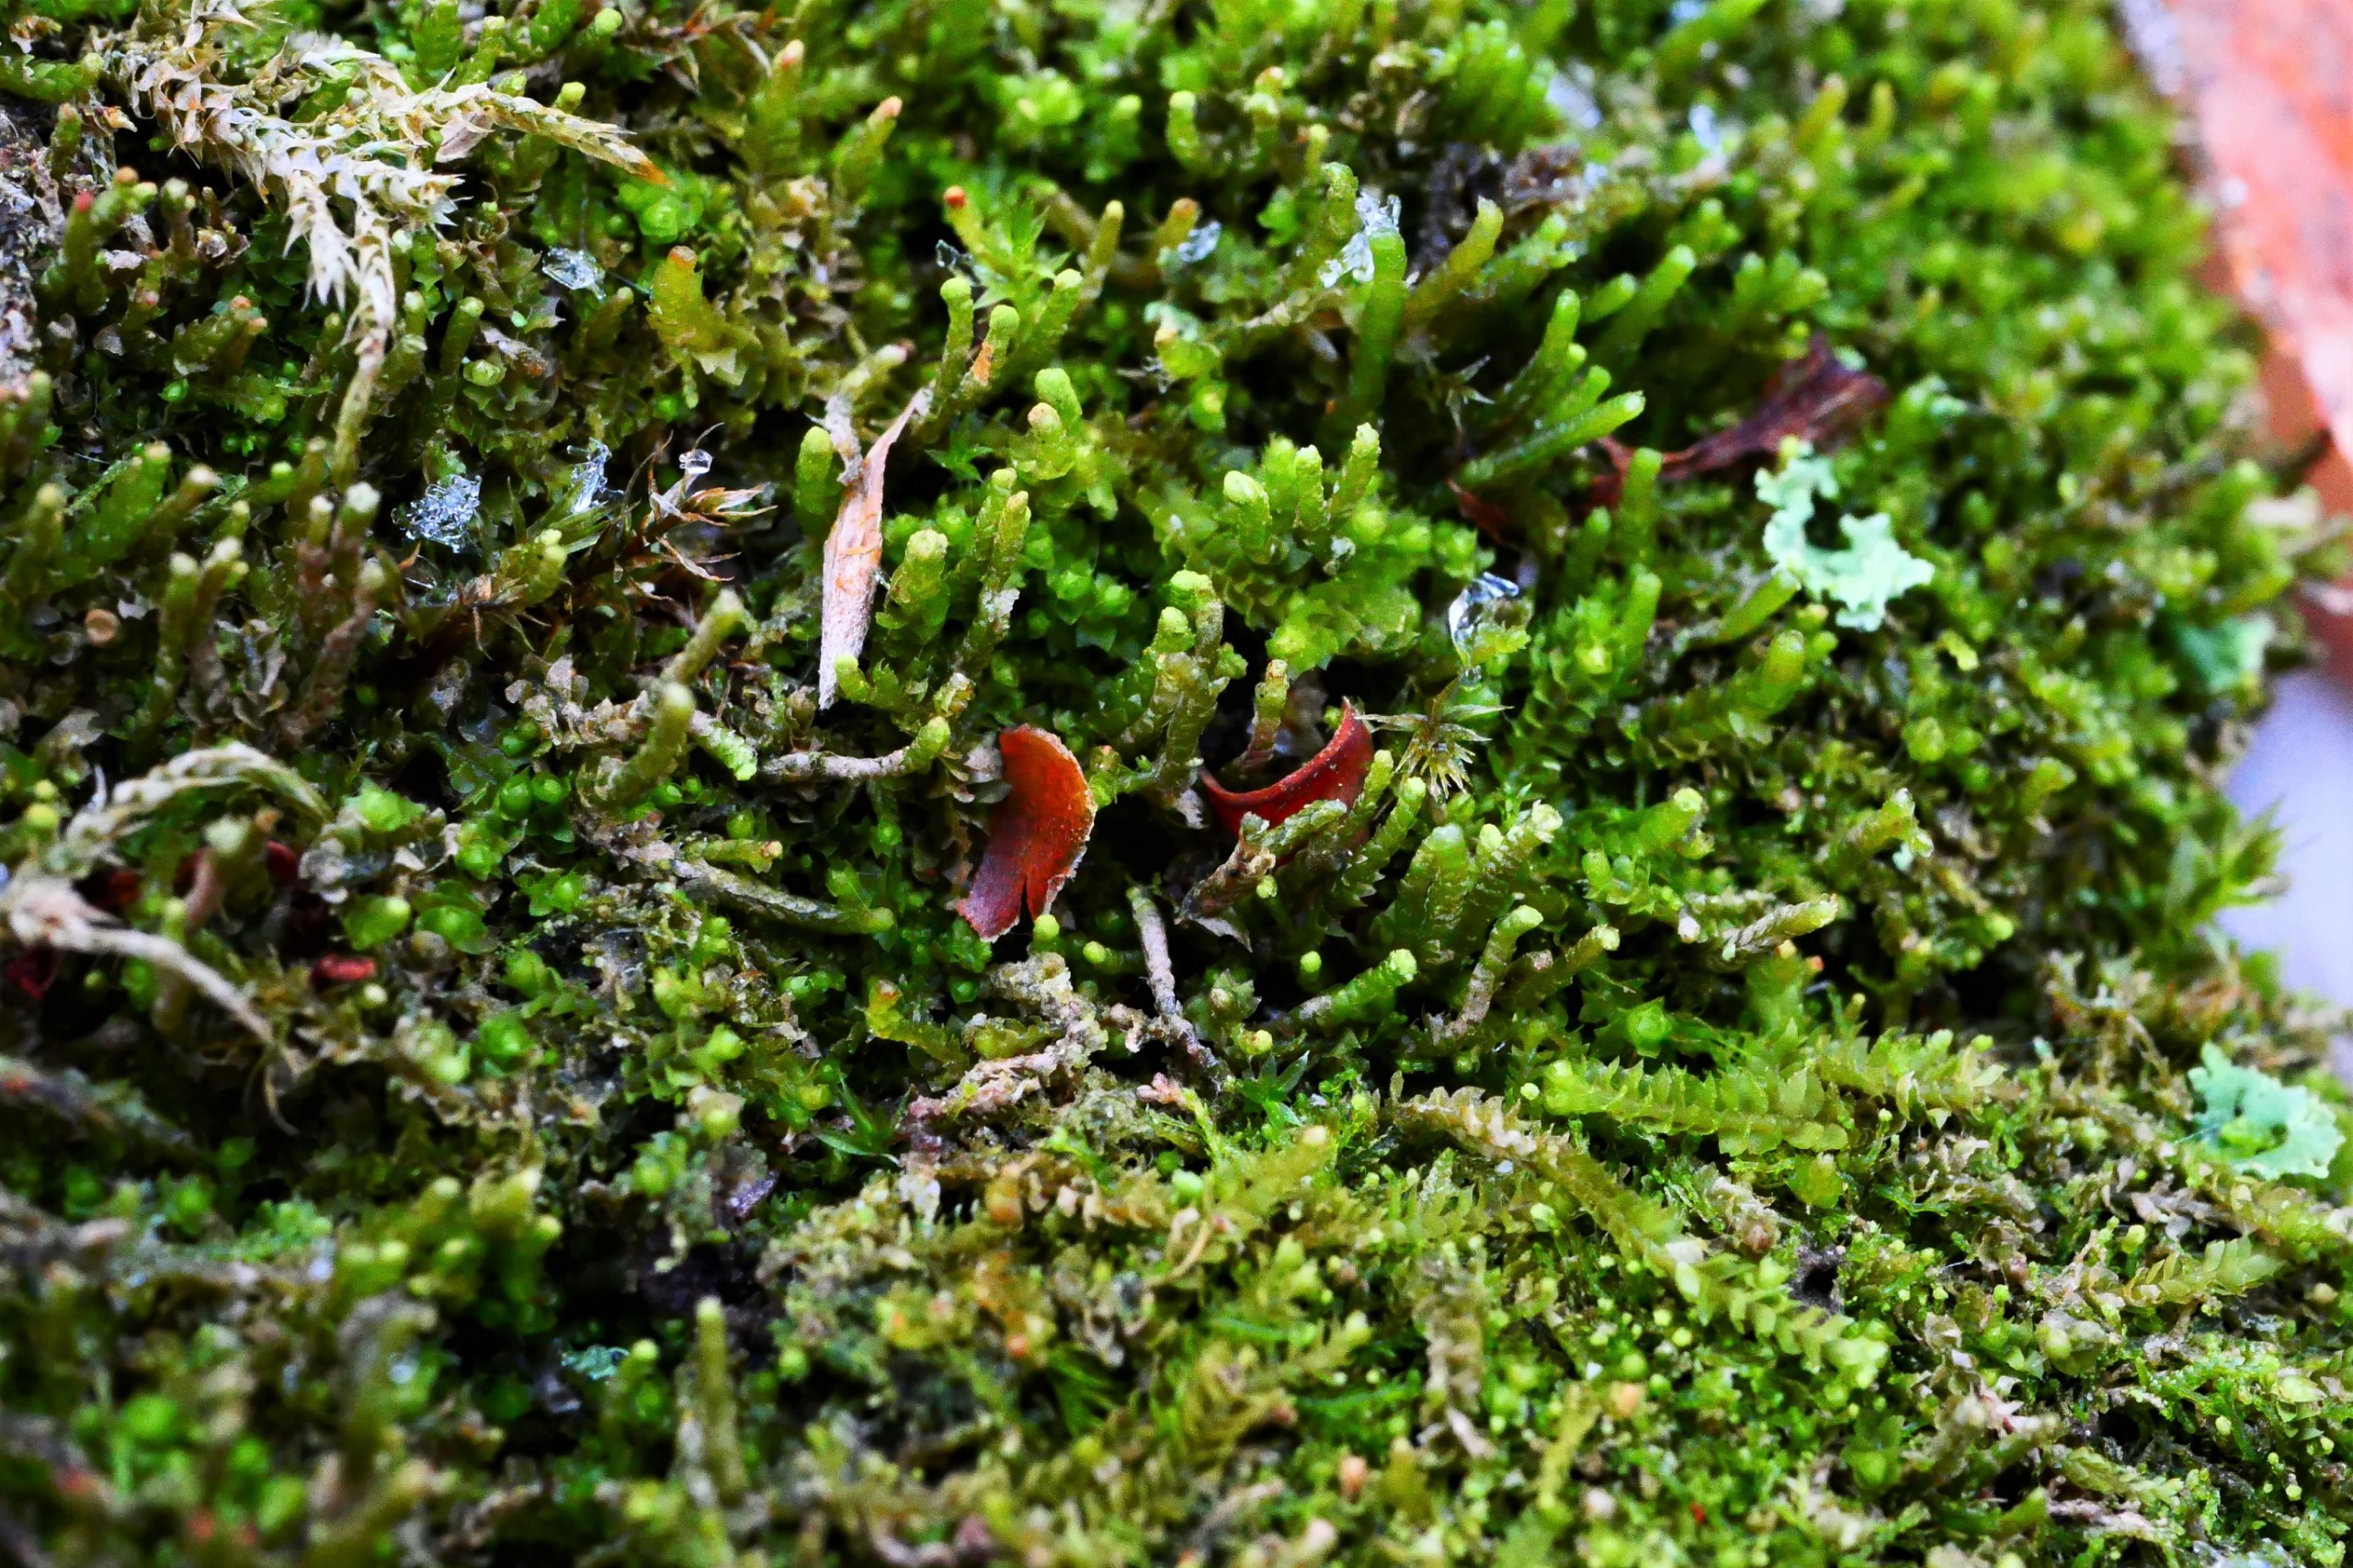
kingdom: Plantae
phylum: Marchantiophyta
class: Jungermanniopsida
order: Jungermanniales
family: Anastrophyllaceae
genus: Neoorthocaulis
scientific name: Neoorthocaulis attenuatus
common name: Tynd flerfligmos
